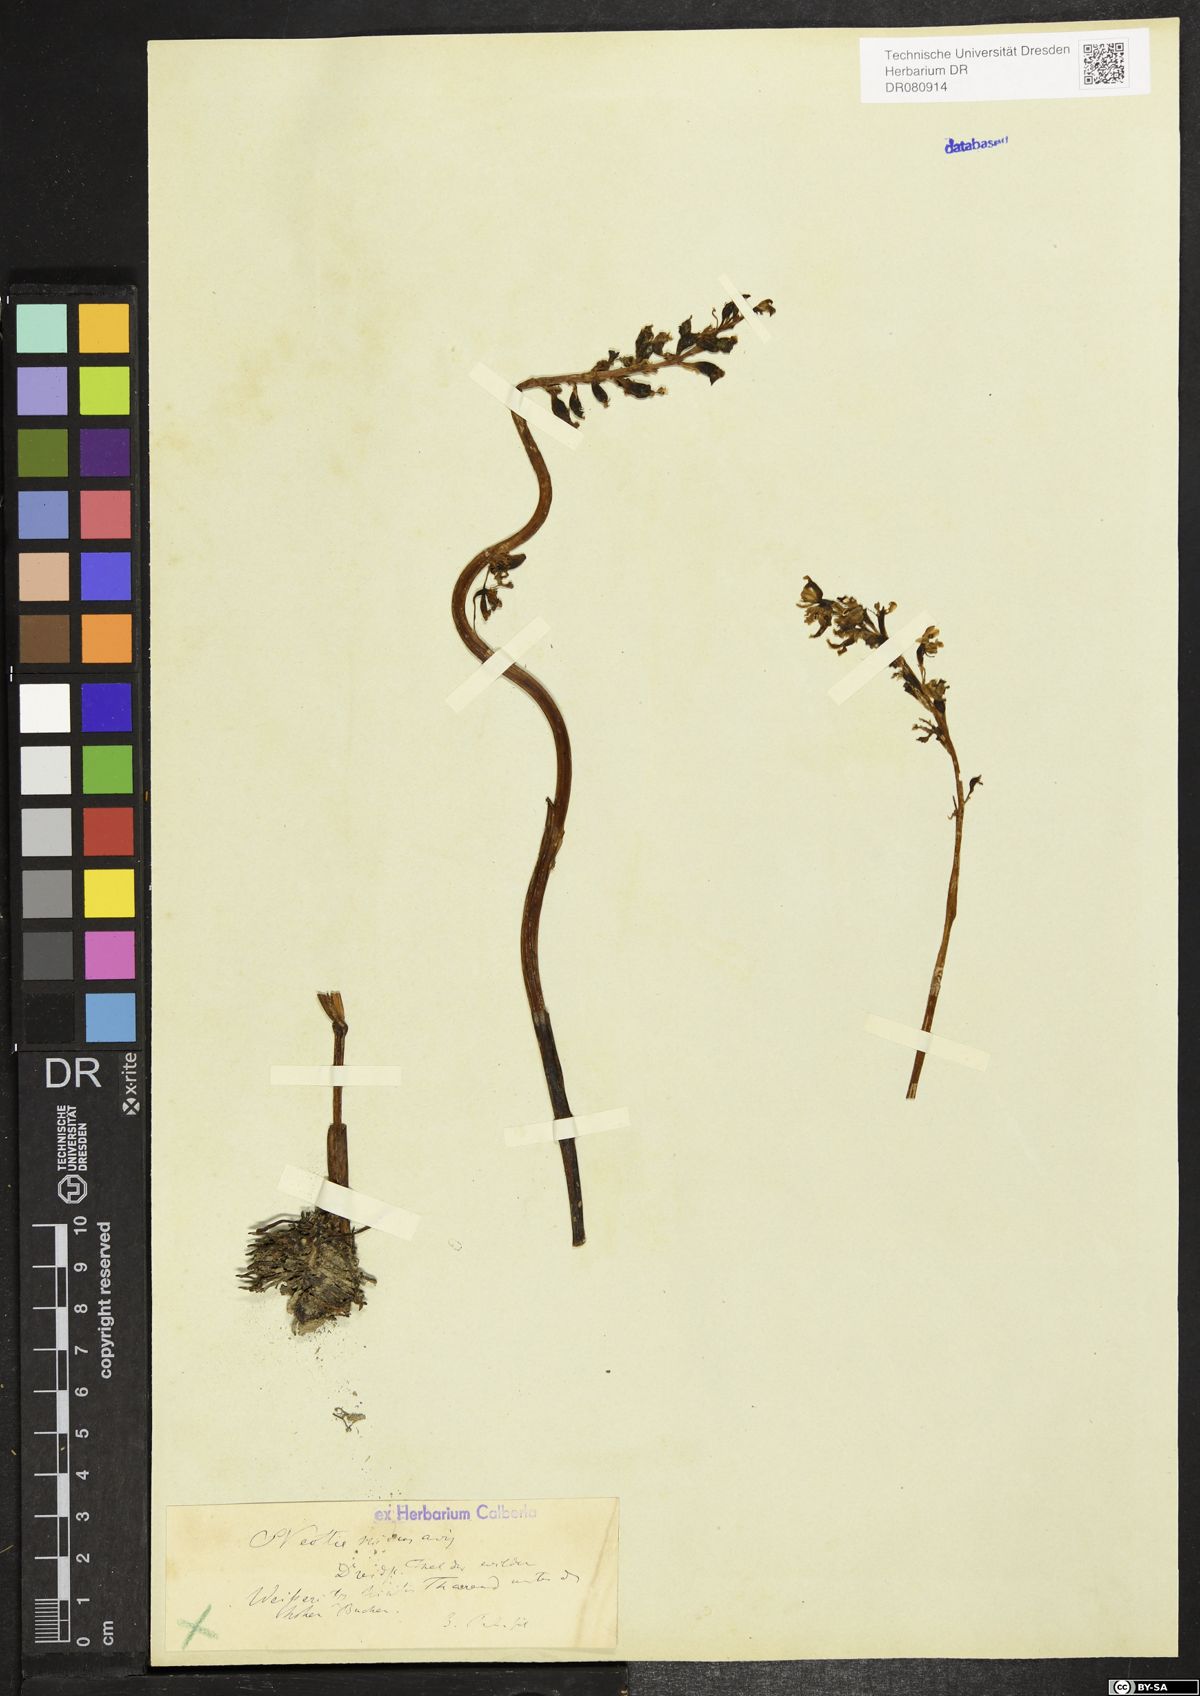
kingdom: Plantae
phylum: Tracheophyta
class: Liliopsida
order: Asparagales
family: Orchidaceae
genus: Neottia
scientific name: Neottia nidus-avis
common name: Bird's-nest orchid
